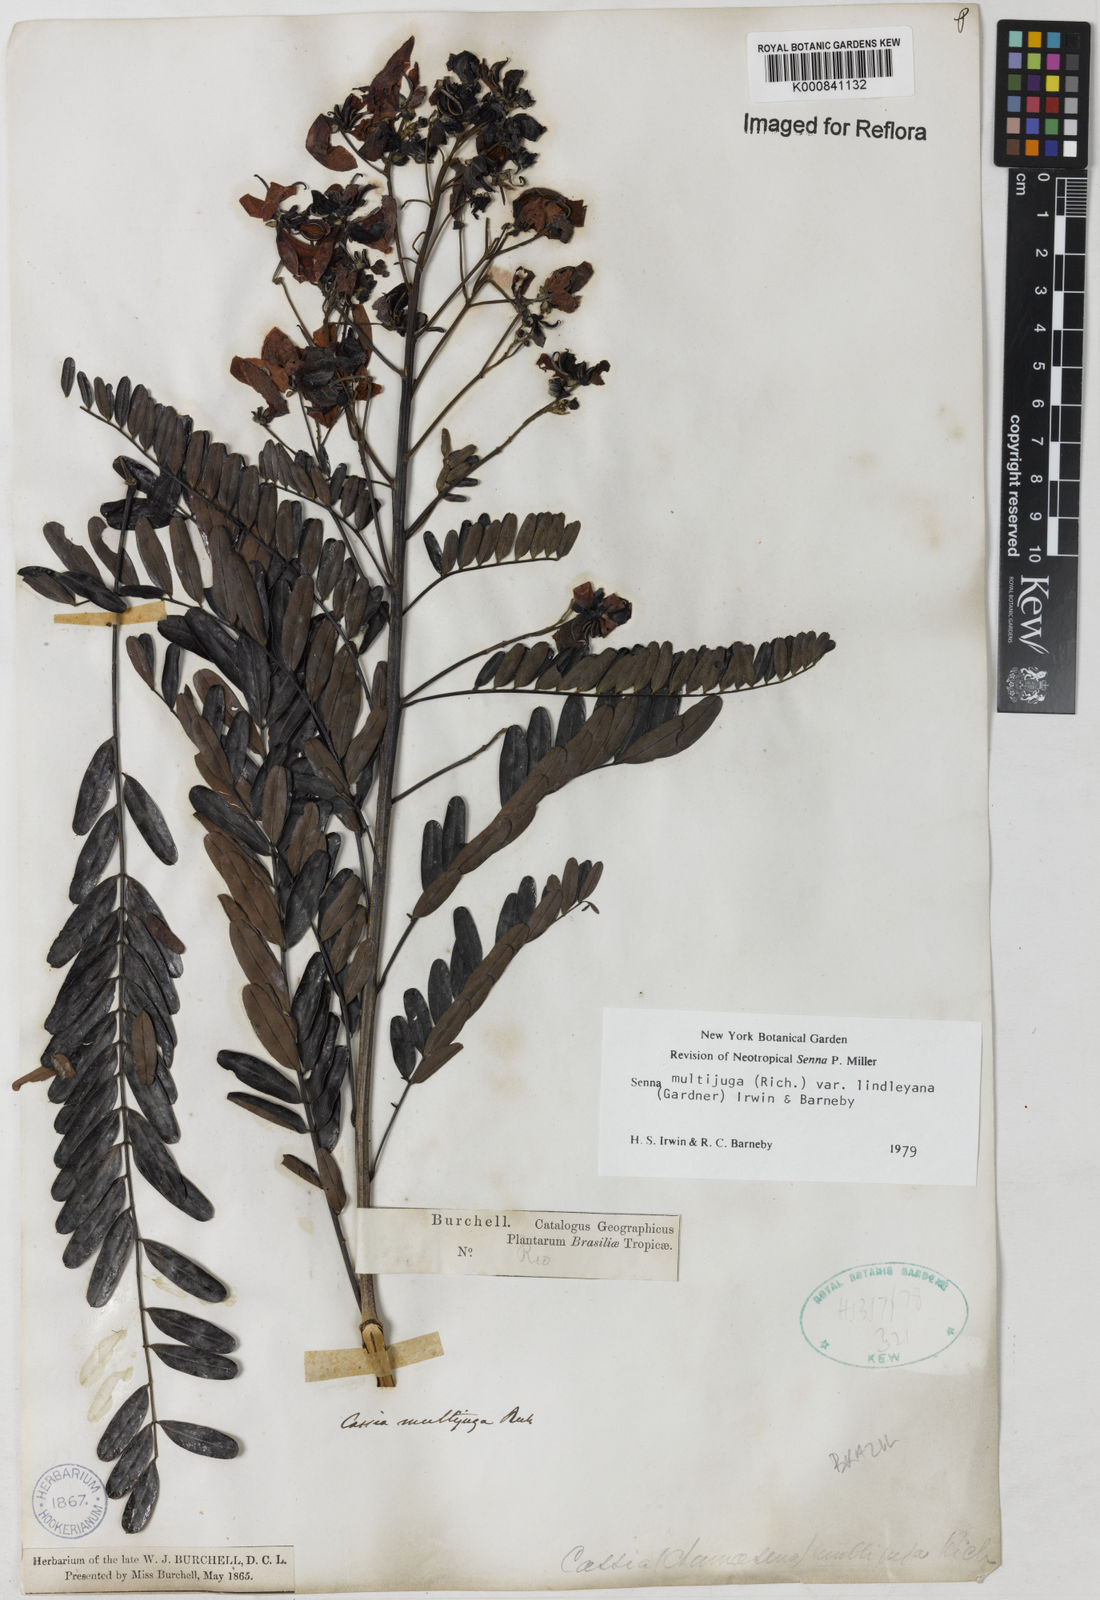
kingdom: Plantae
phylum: Tracheophyta
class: Magnoliopsida
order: Fabales
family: Fabaceae
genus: Senna
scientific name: Senna multijuga
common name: False sicklepod
